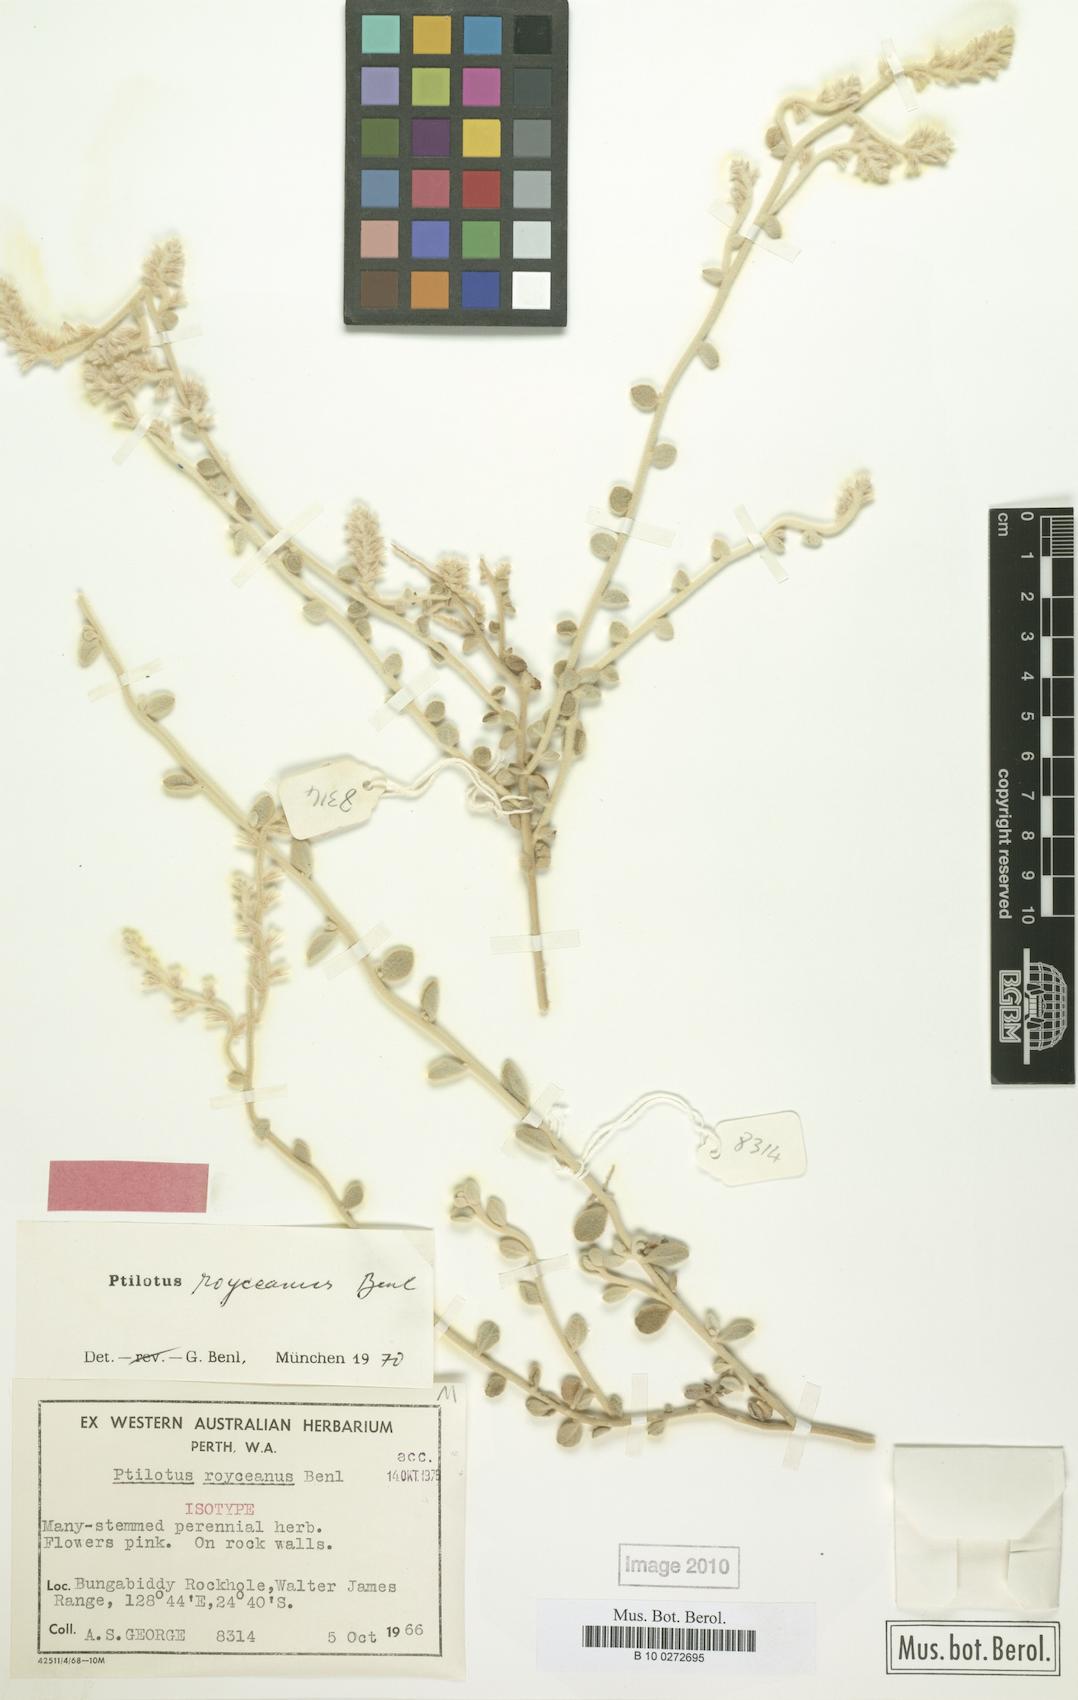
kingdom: Plantae
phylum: Tracheophyta
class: Magnoliopsida
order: Caryophyllales
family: Amaranthaceae
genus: Ptilotus
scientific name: Ptilotus royceanus
